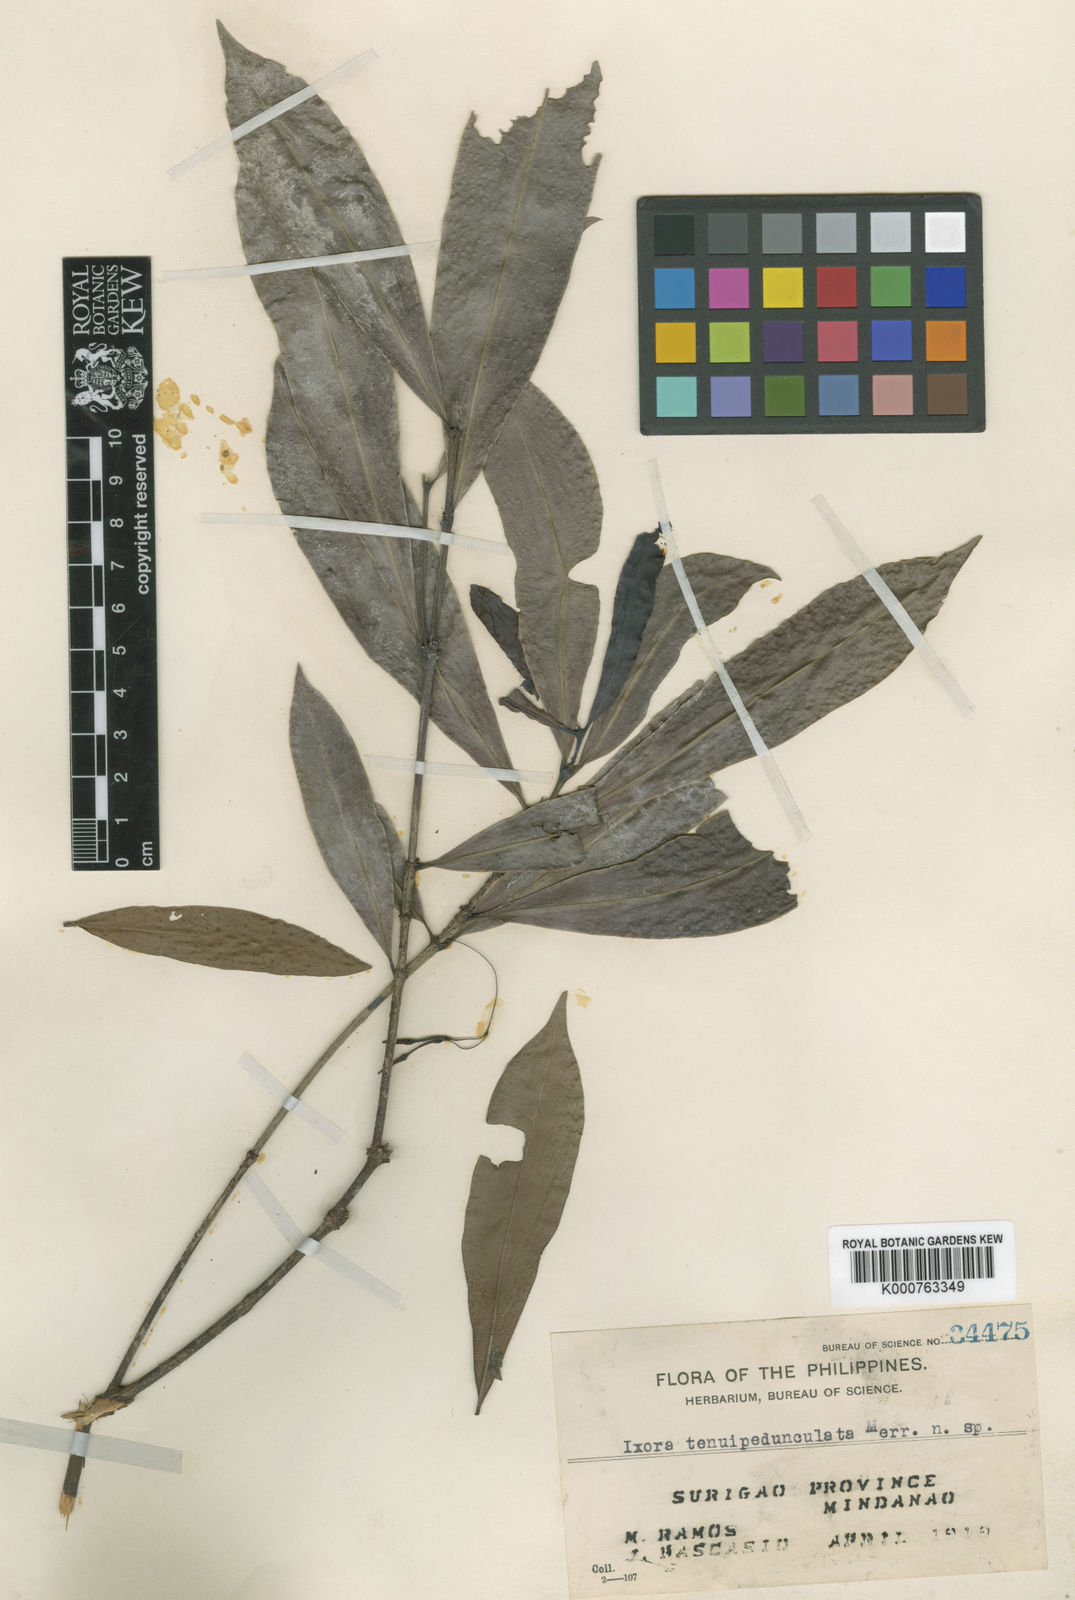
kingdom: Plantae
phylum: Tracheophyta
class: Magnoliopsida
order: Gentianales
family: Rubiaceae
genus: Ixora
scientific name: Ixora tenuipedunculata
